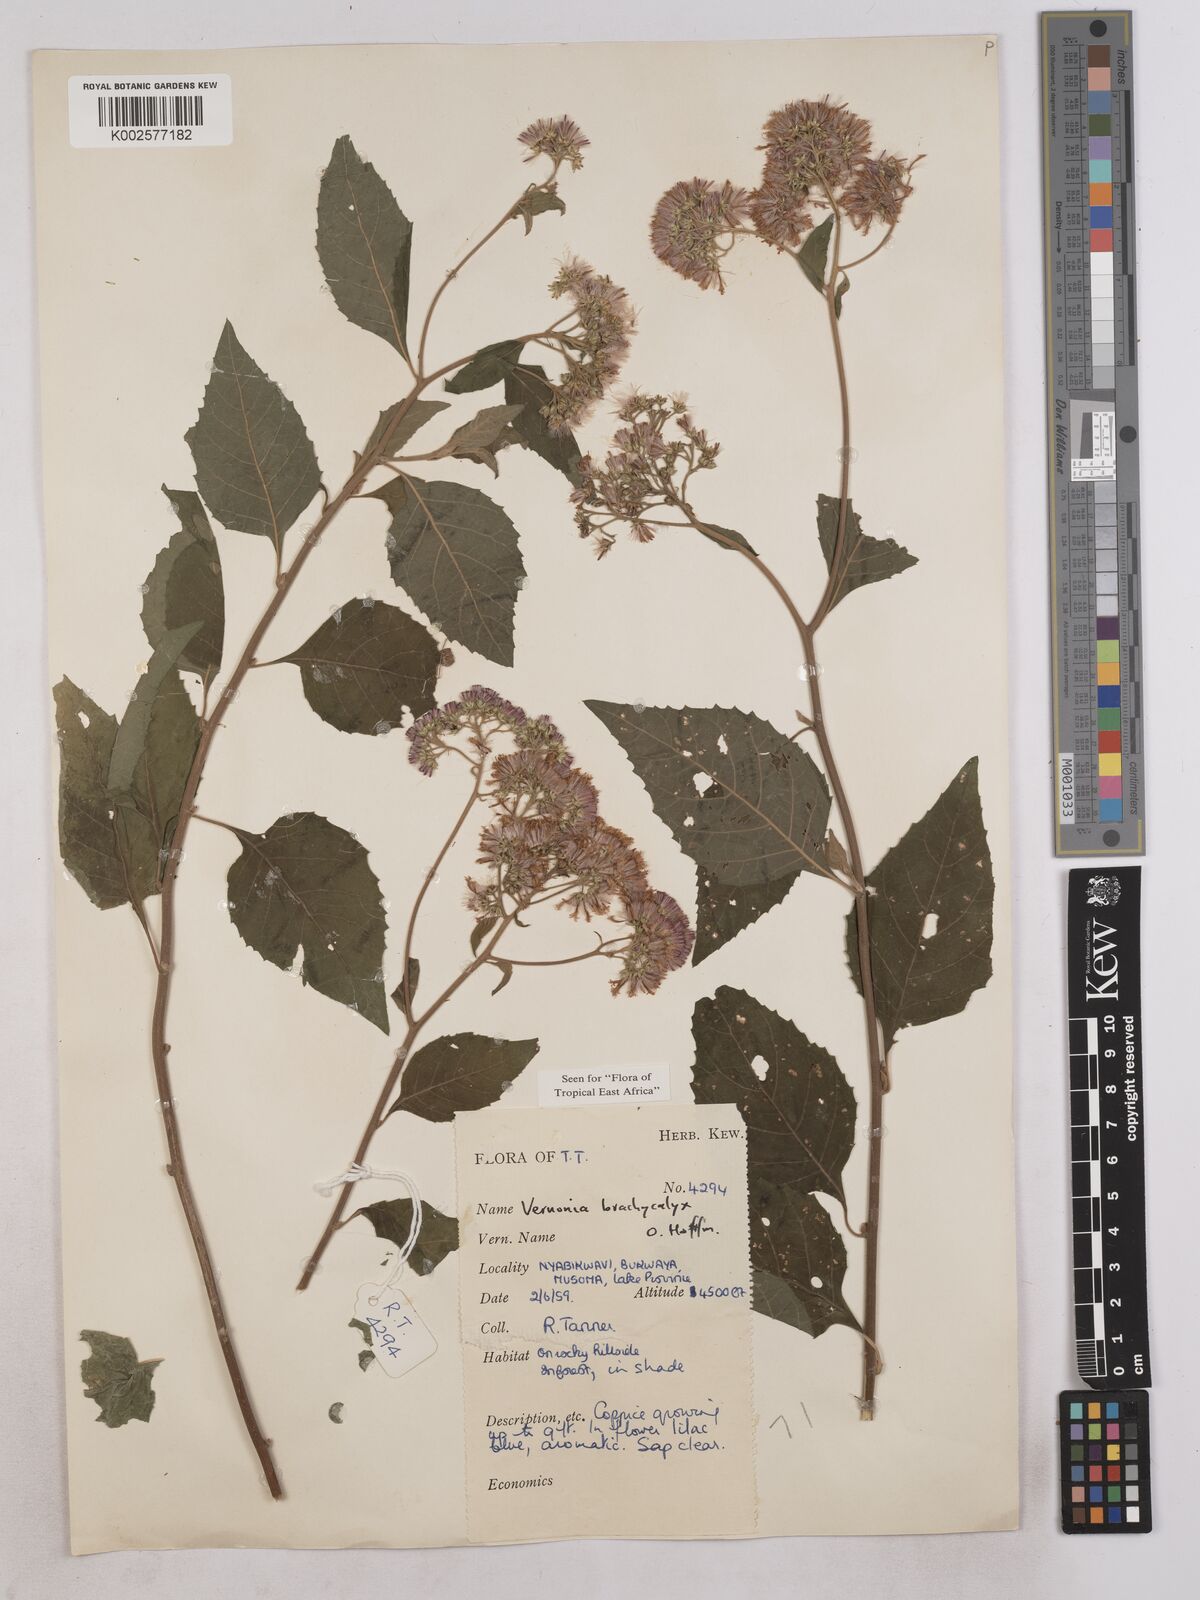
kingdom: Plantae
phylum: Tracheophyta
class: Magnoliopsida
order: Asterales
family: Asteraceae
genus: Hoffmannanthus
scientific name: Hoffmannanthus abbotianus
